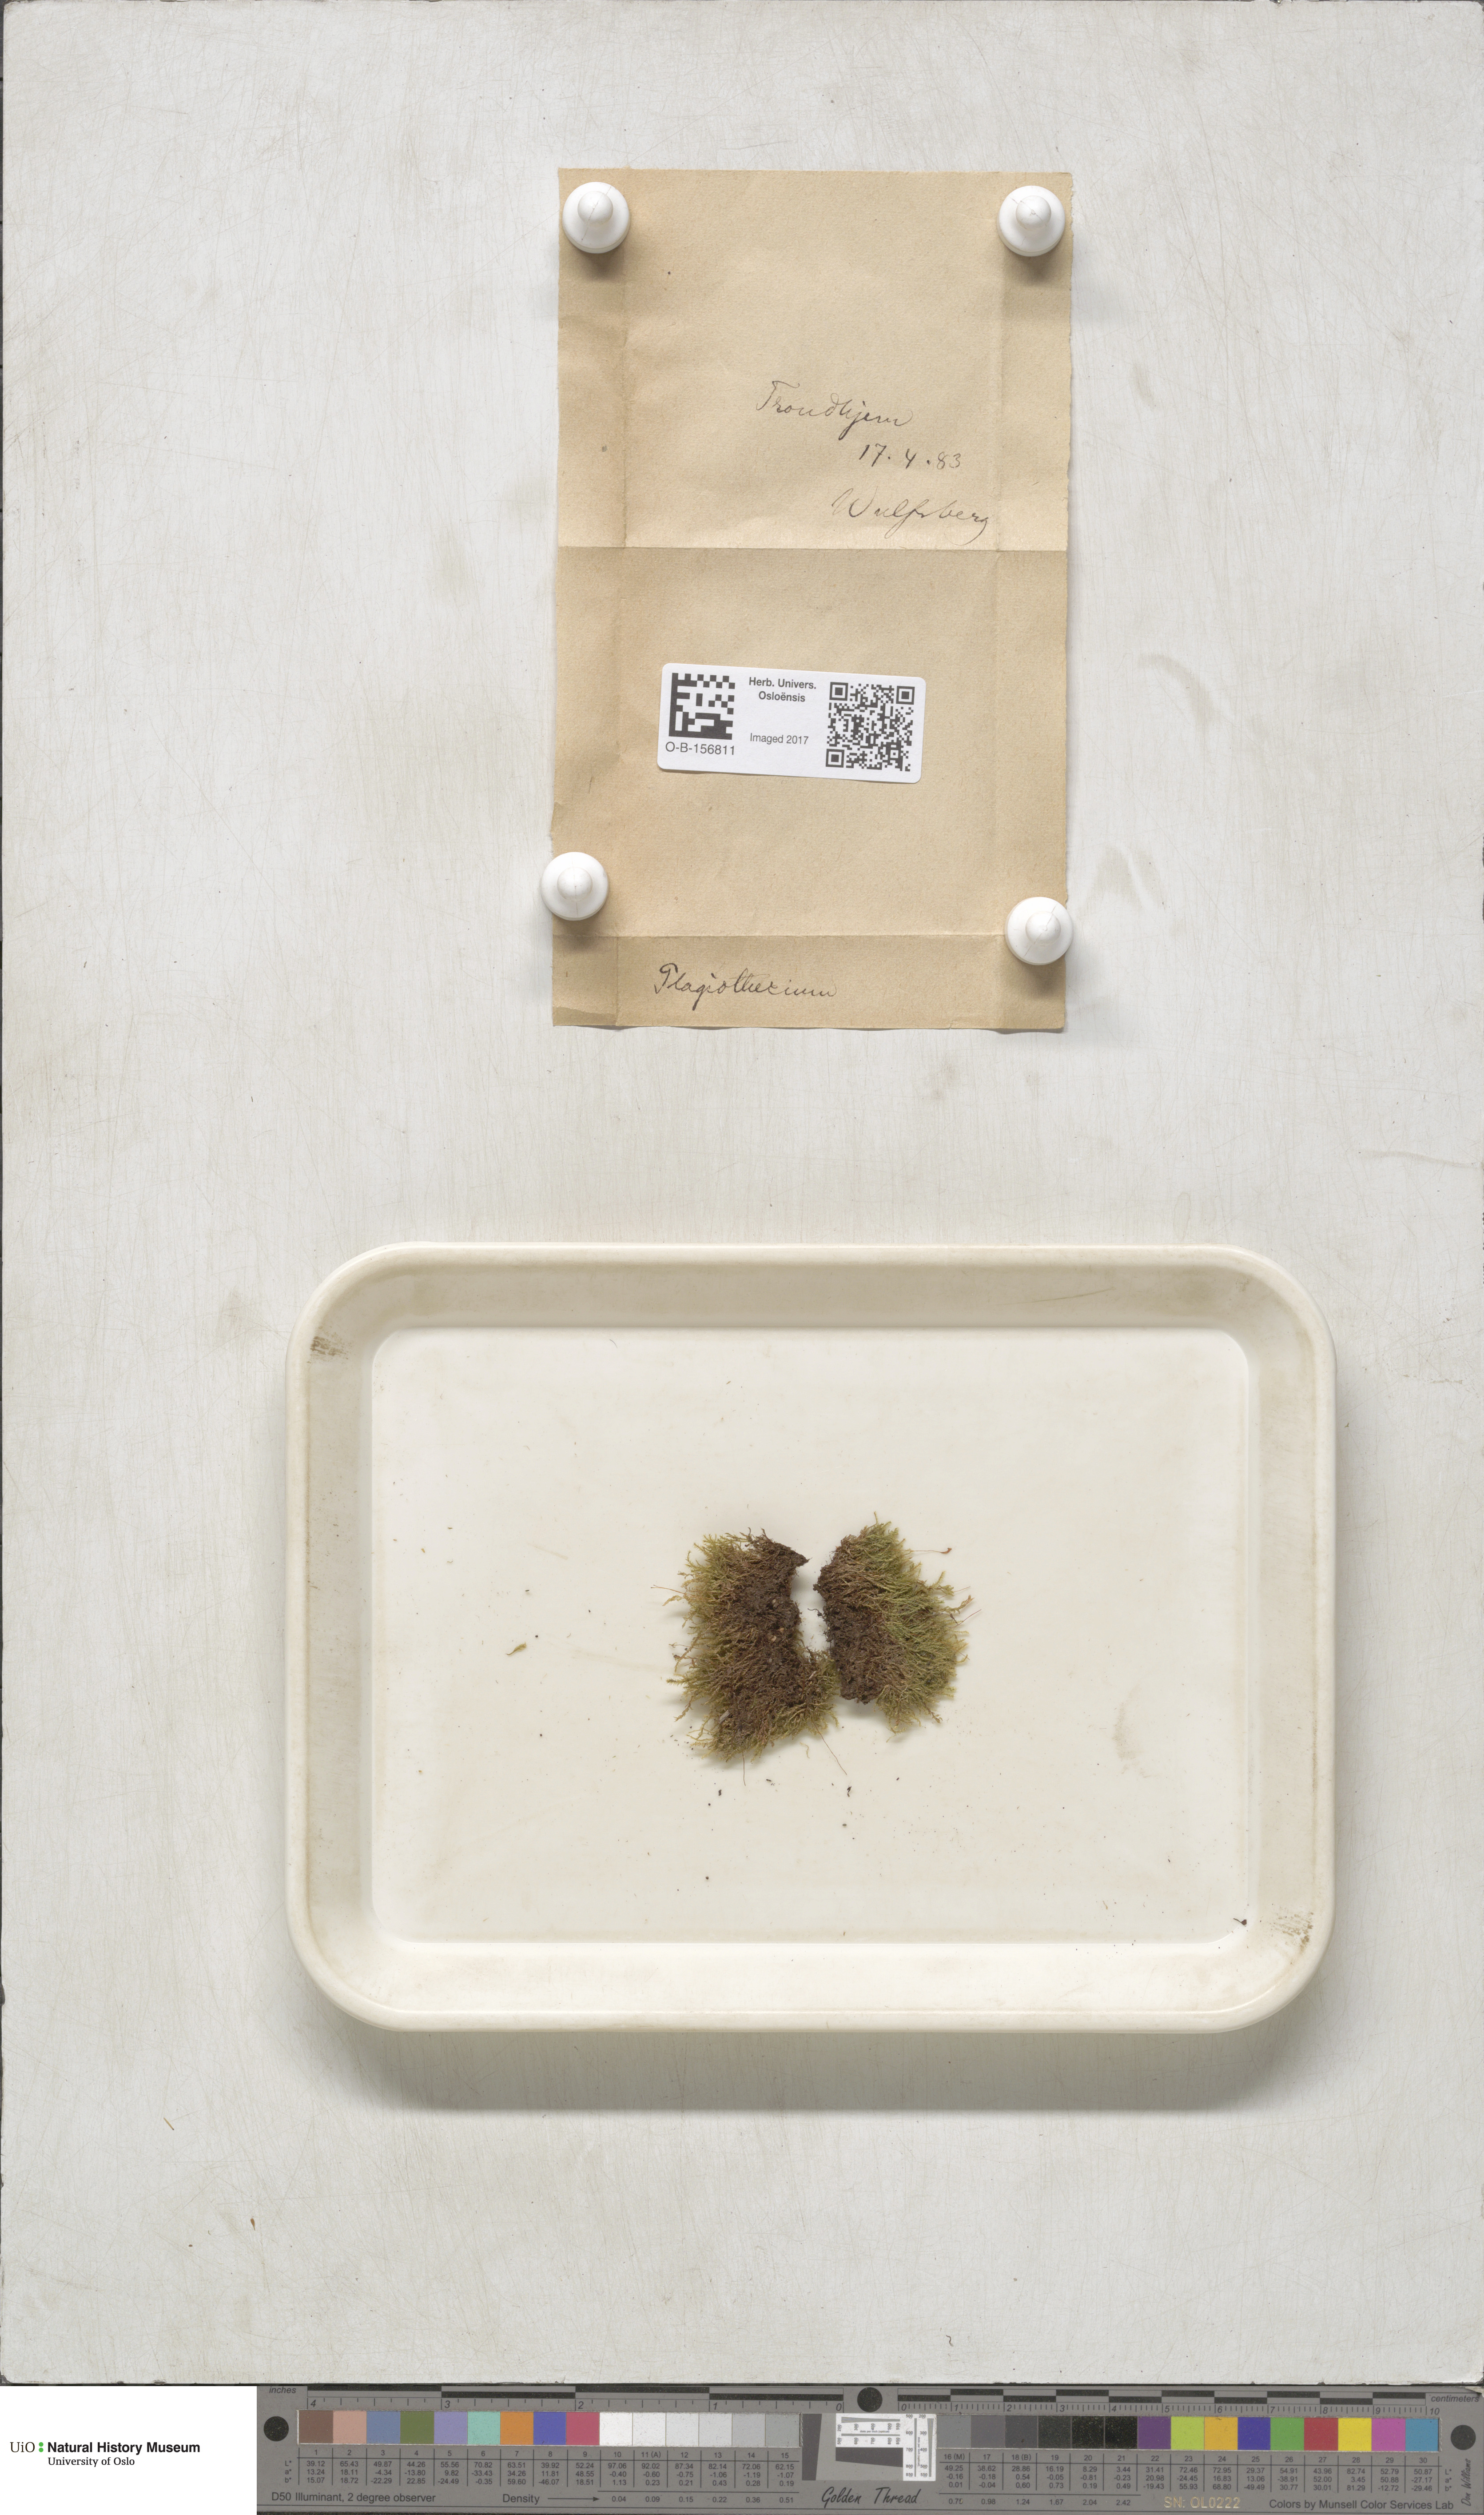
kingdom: Plantae
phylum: Bryophyta
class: Bryopsida
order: Hypnales
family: Plagiotheciaceae
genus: Plagiothecium
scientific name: Plagiothecium
